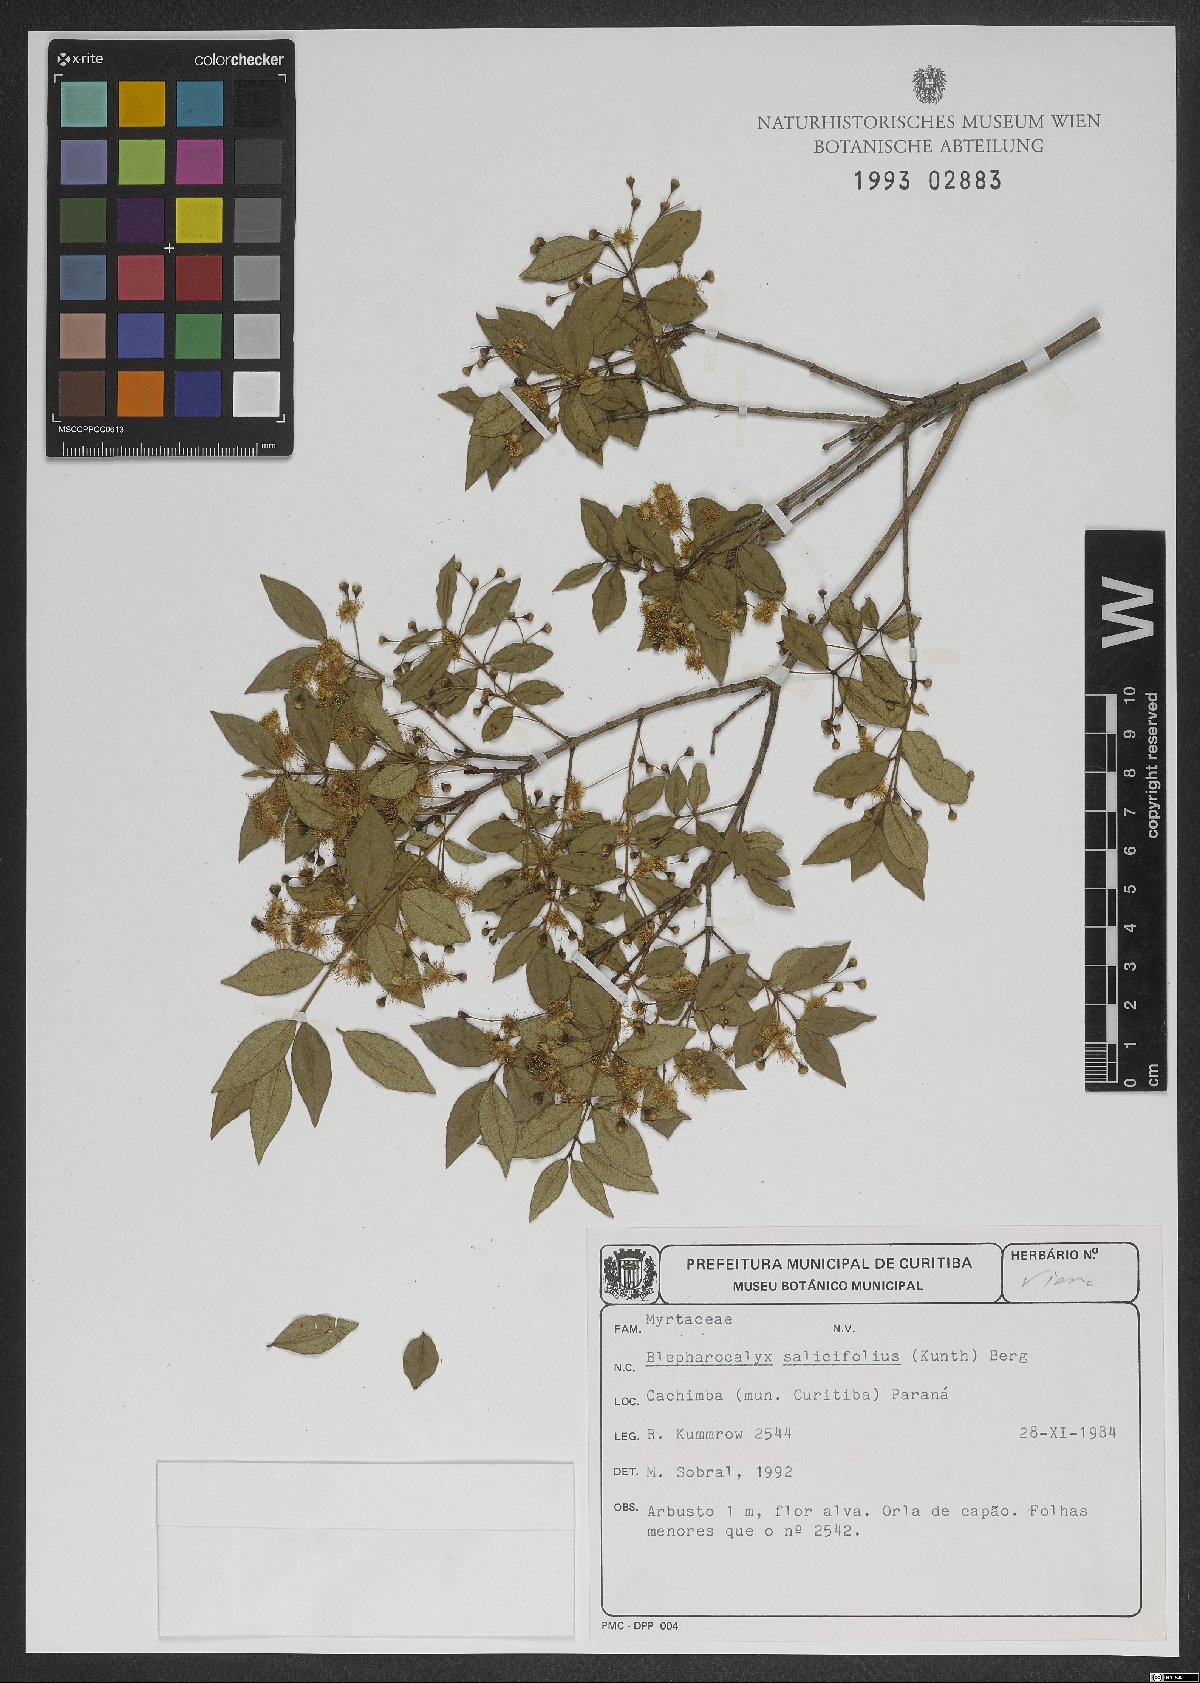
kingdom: Plantae
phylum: Tracheophyta
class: Magnoliopsida
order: Myrtales
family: Myrtaceae
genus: Blepharocalyx
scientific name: Blepharocalyx salicifolius
